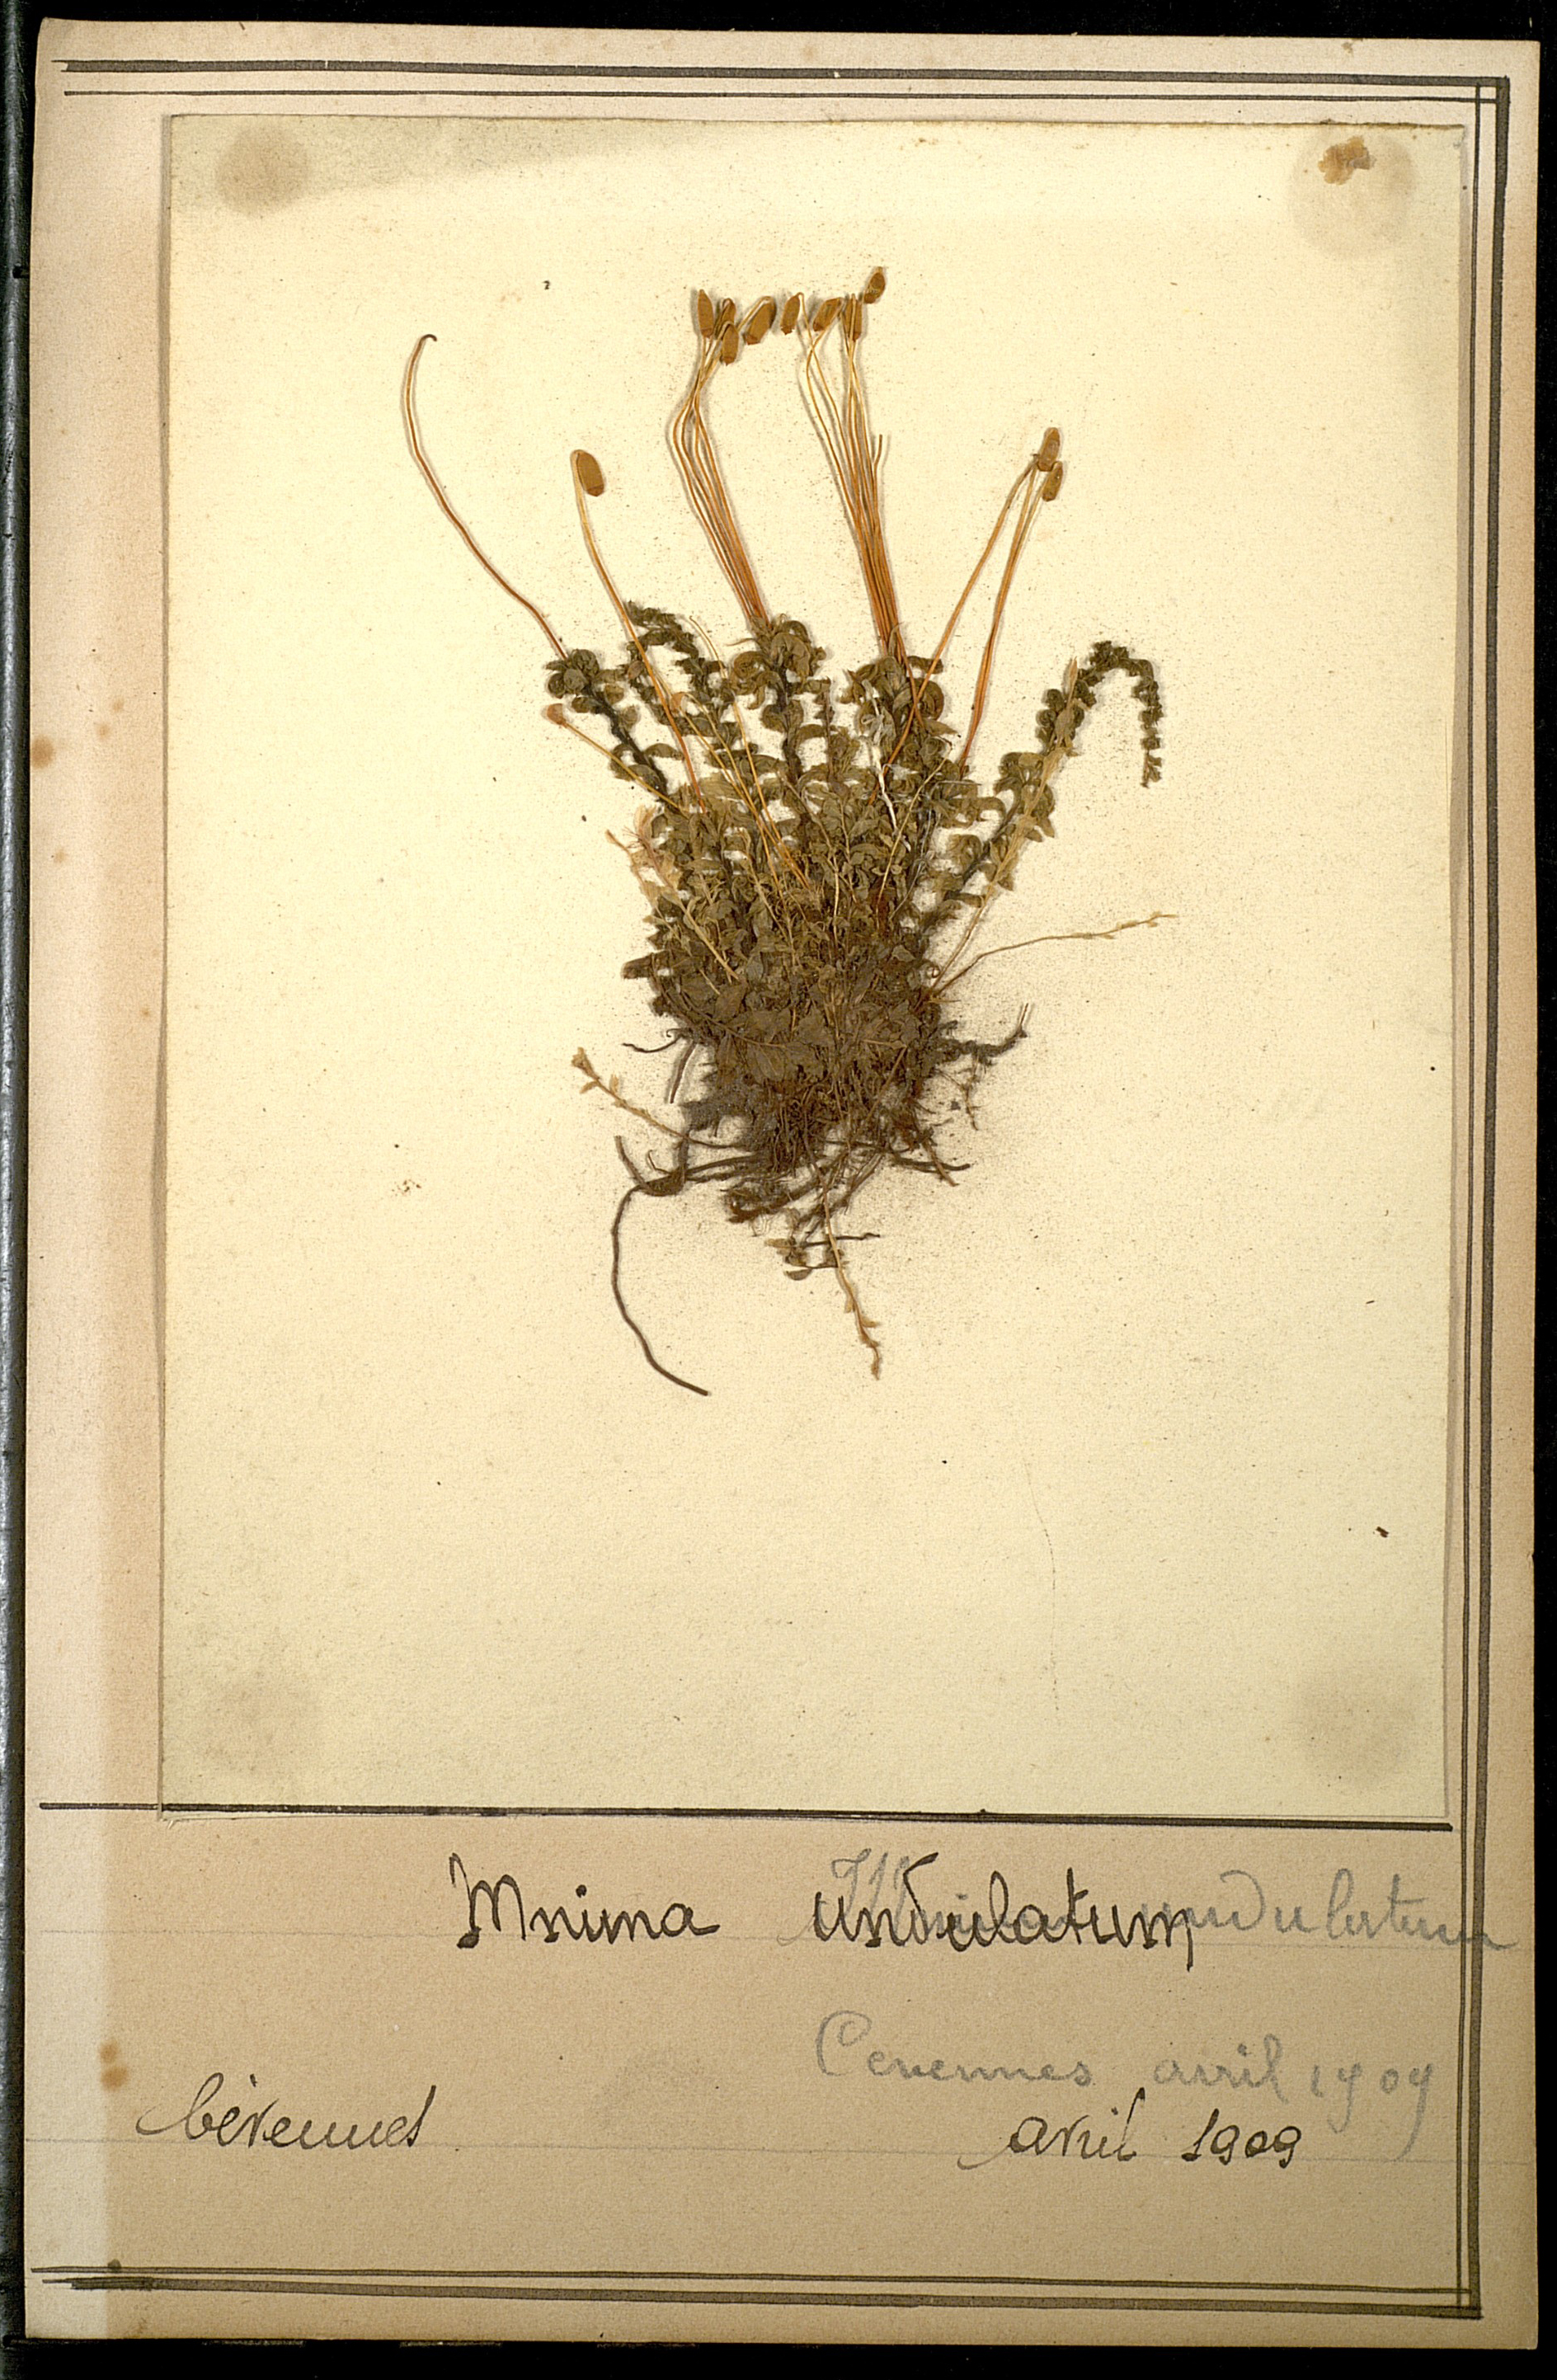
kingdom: Plantae
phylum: Bryophyta
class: Bryopsida
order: Bryales
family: Mniaceae
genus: Plagiomnium
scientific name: Plagiomnium undulatum
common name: Hart's-tongue thyme-moss
